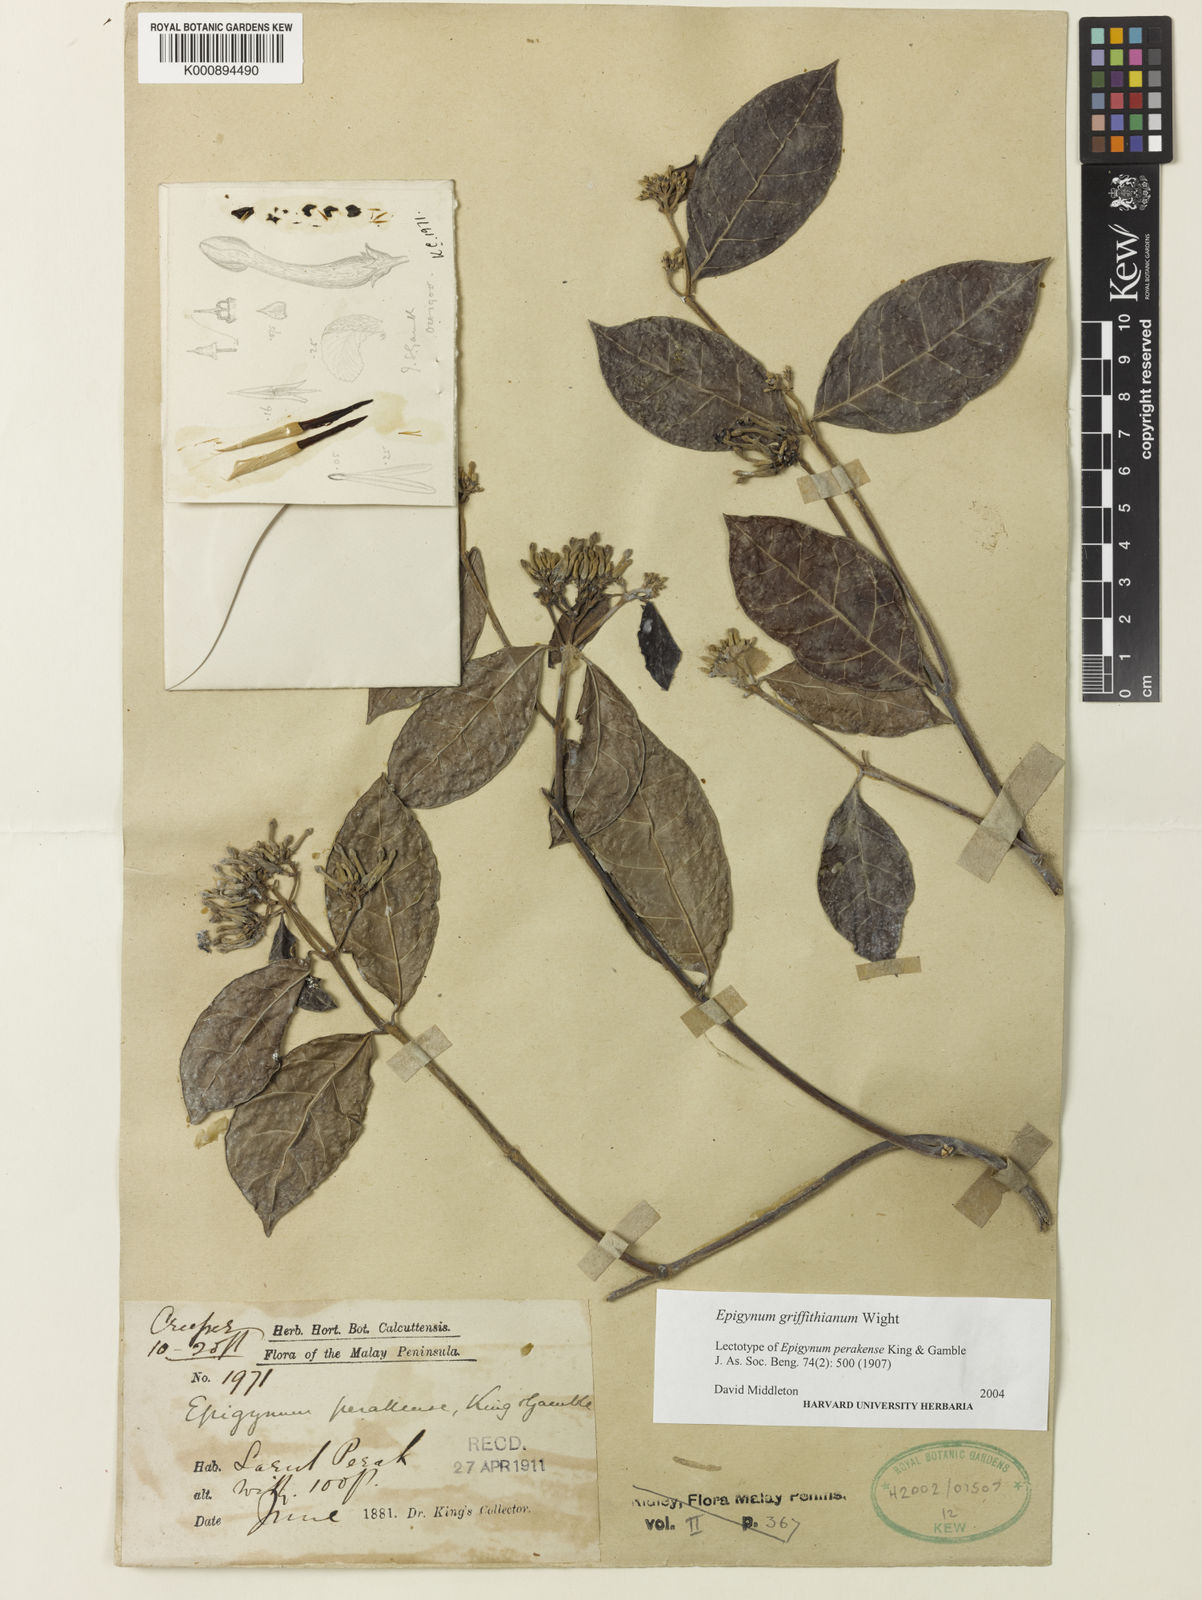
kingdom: Plantae
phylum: Tracheophyta
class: Magnoliopsida
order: Gentianales
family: Apocynaceae
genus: Epigynum
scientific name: Epigynum griffithianum
